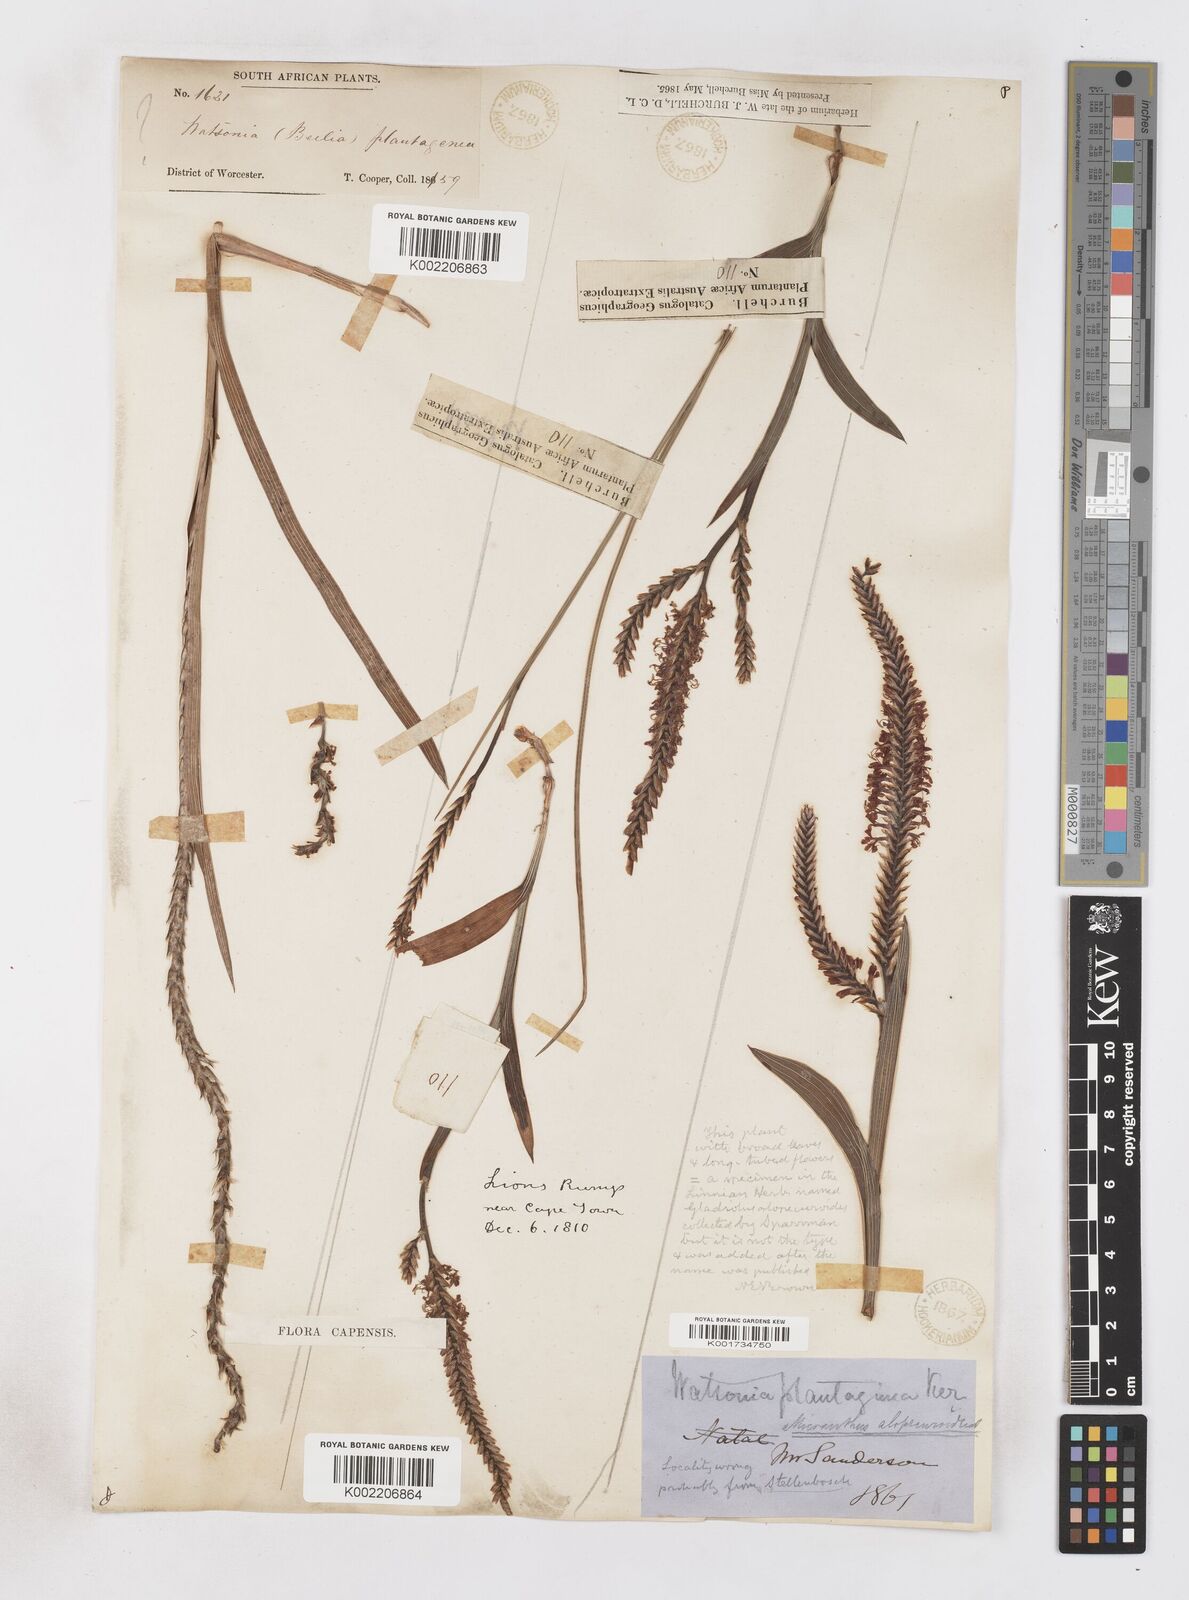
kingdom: Plantae
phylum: Tracheophyta
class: Liliopsida
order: Asparagales
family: Iridaceae
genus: Micranthus
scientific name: Micranthus plantagineus
